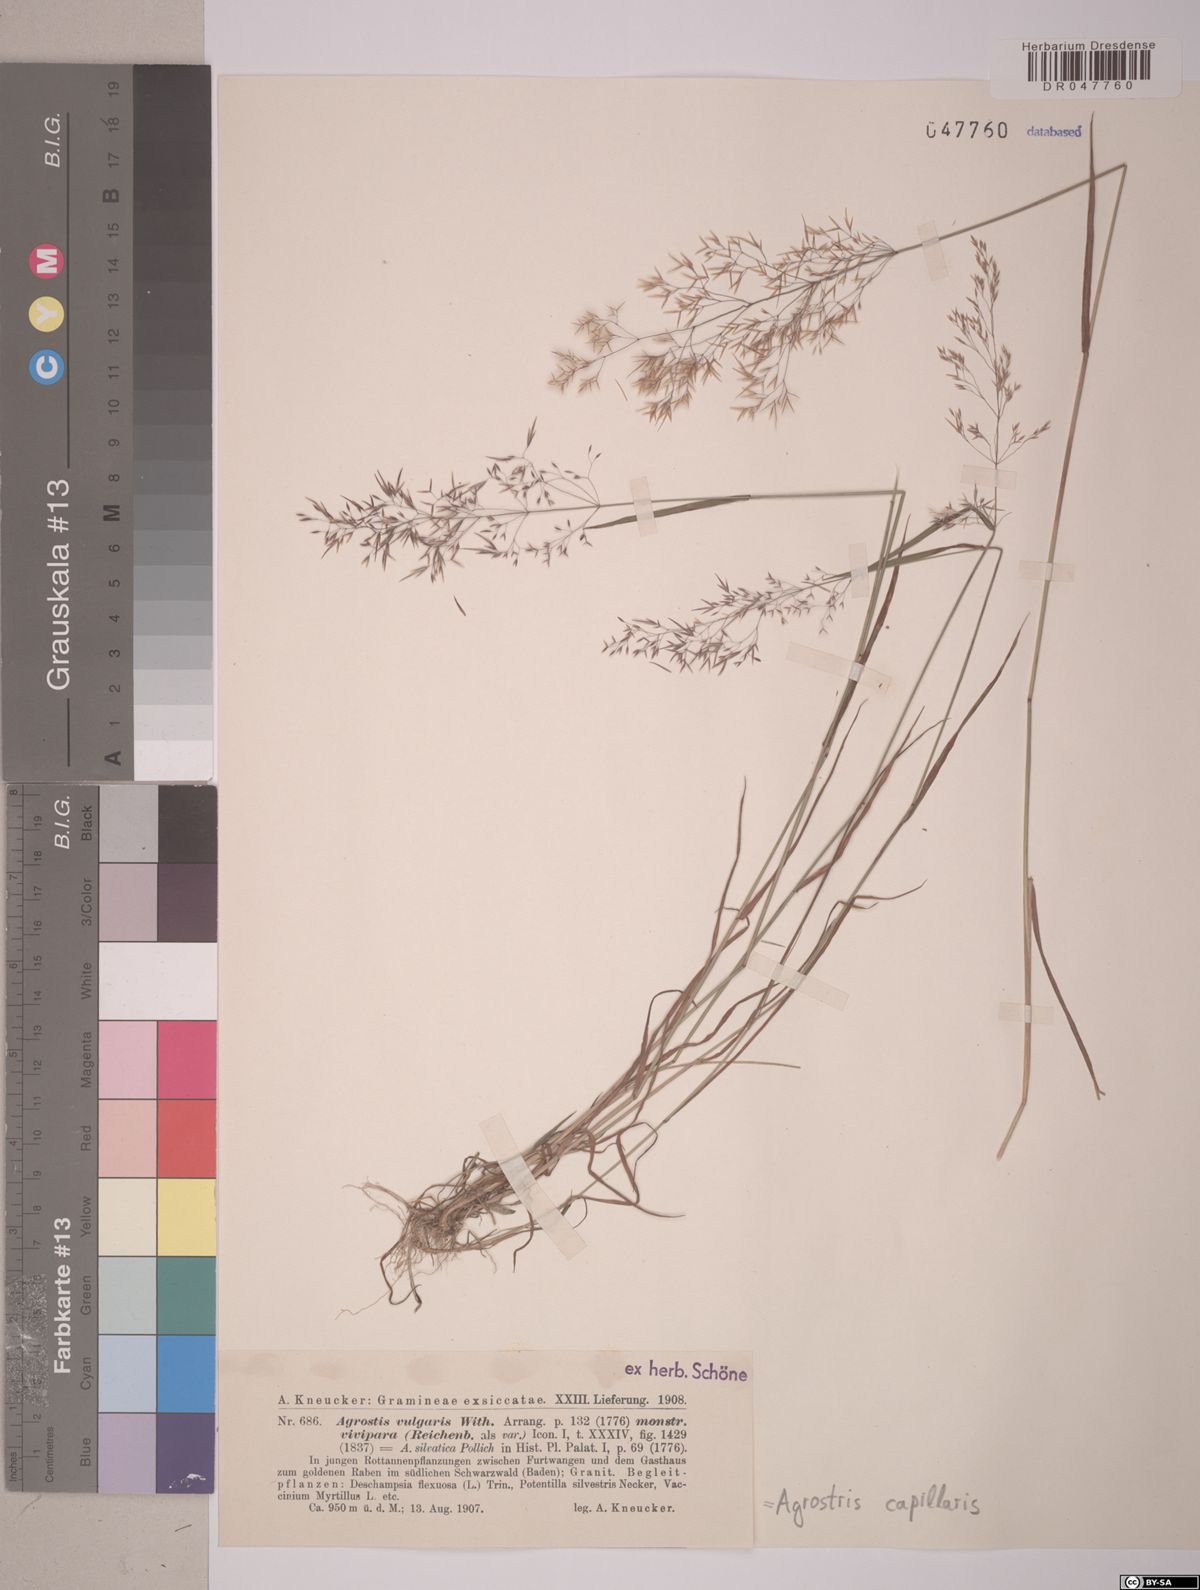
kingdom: Plantae
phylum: Tracheophyta
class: Liliopsida
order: Poales
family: Poaceae
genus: Agrostis
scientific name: Agrostis capillaris
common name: Colonial bentgrass
